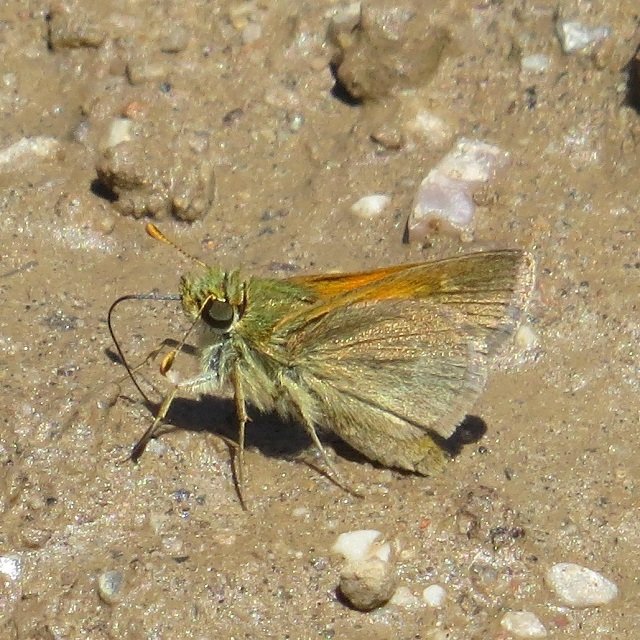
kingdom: Animalia
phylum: Arthropoda
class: Insecta
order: Lepidoptera
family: Hesperiidae
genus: Polites
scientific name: Polites themistocles
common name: Tawny-edged Skipper
